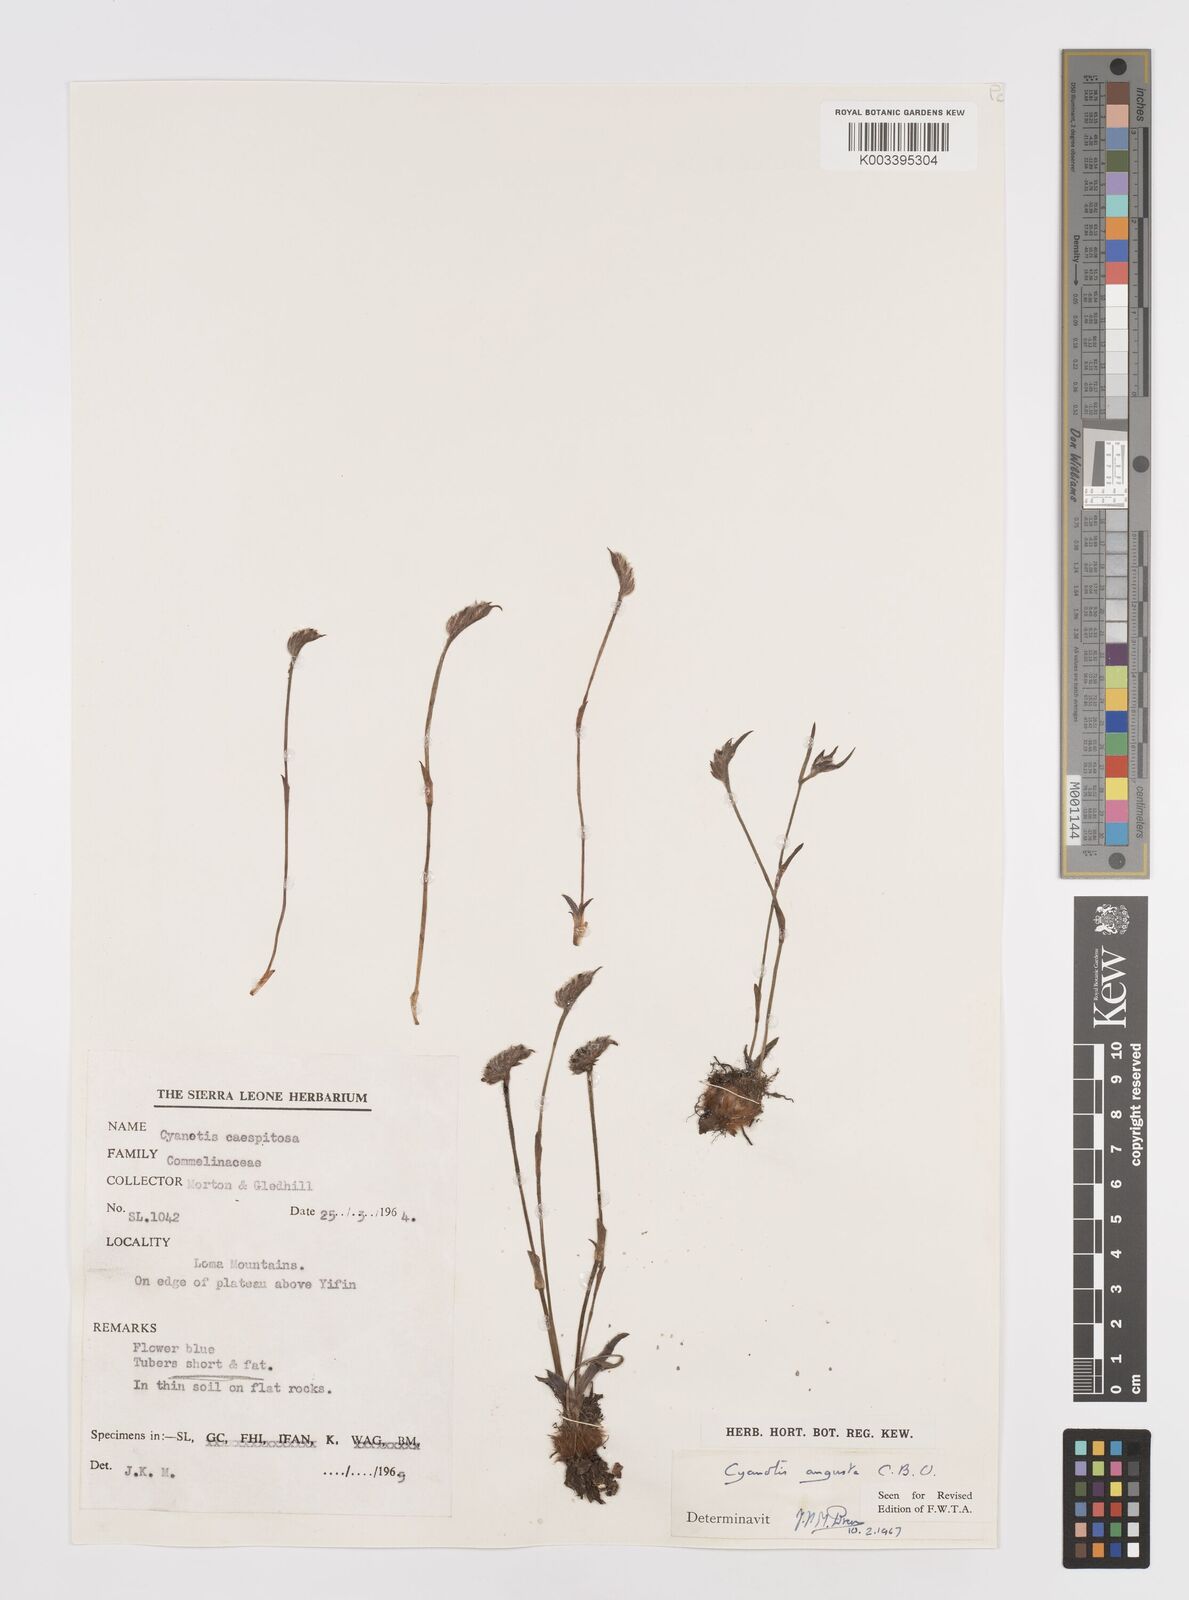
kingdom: Plantae
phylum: Tracheophyta
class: Liliopsida
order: Commelinales
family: Commelinaceae
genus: Cyanotis
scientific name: Cyanotis angusta
